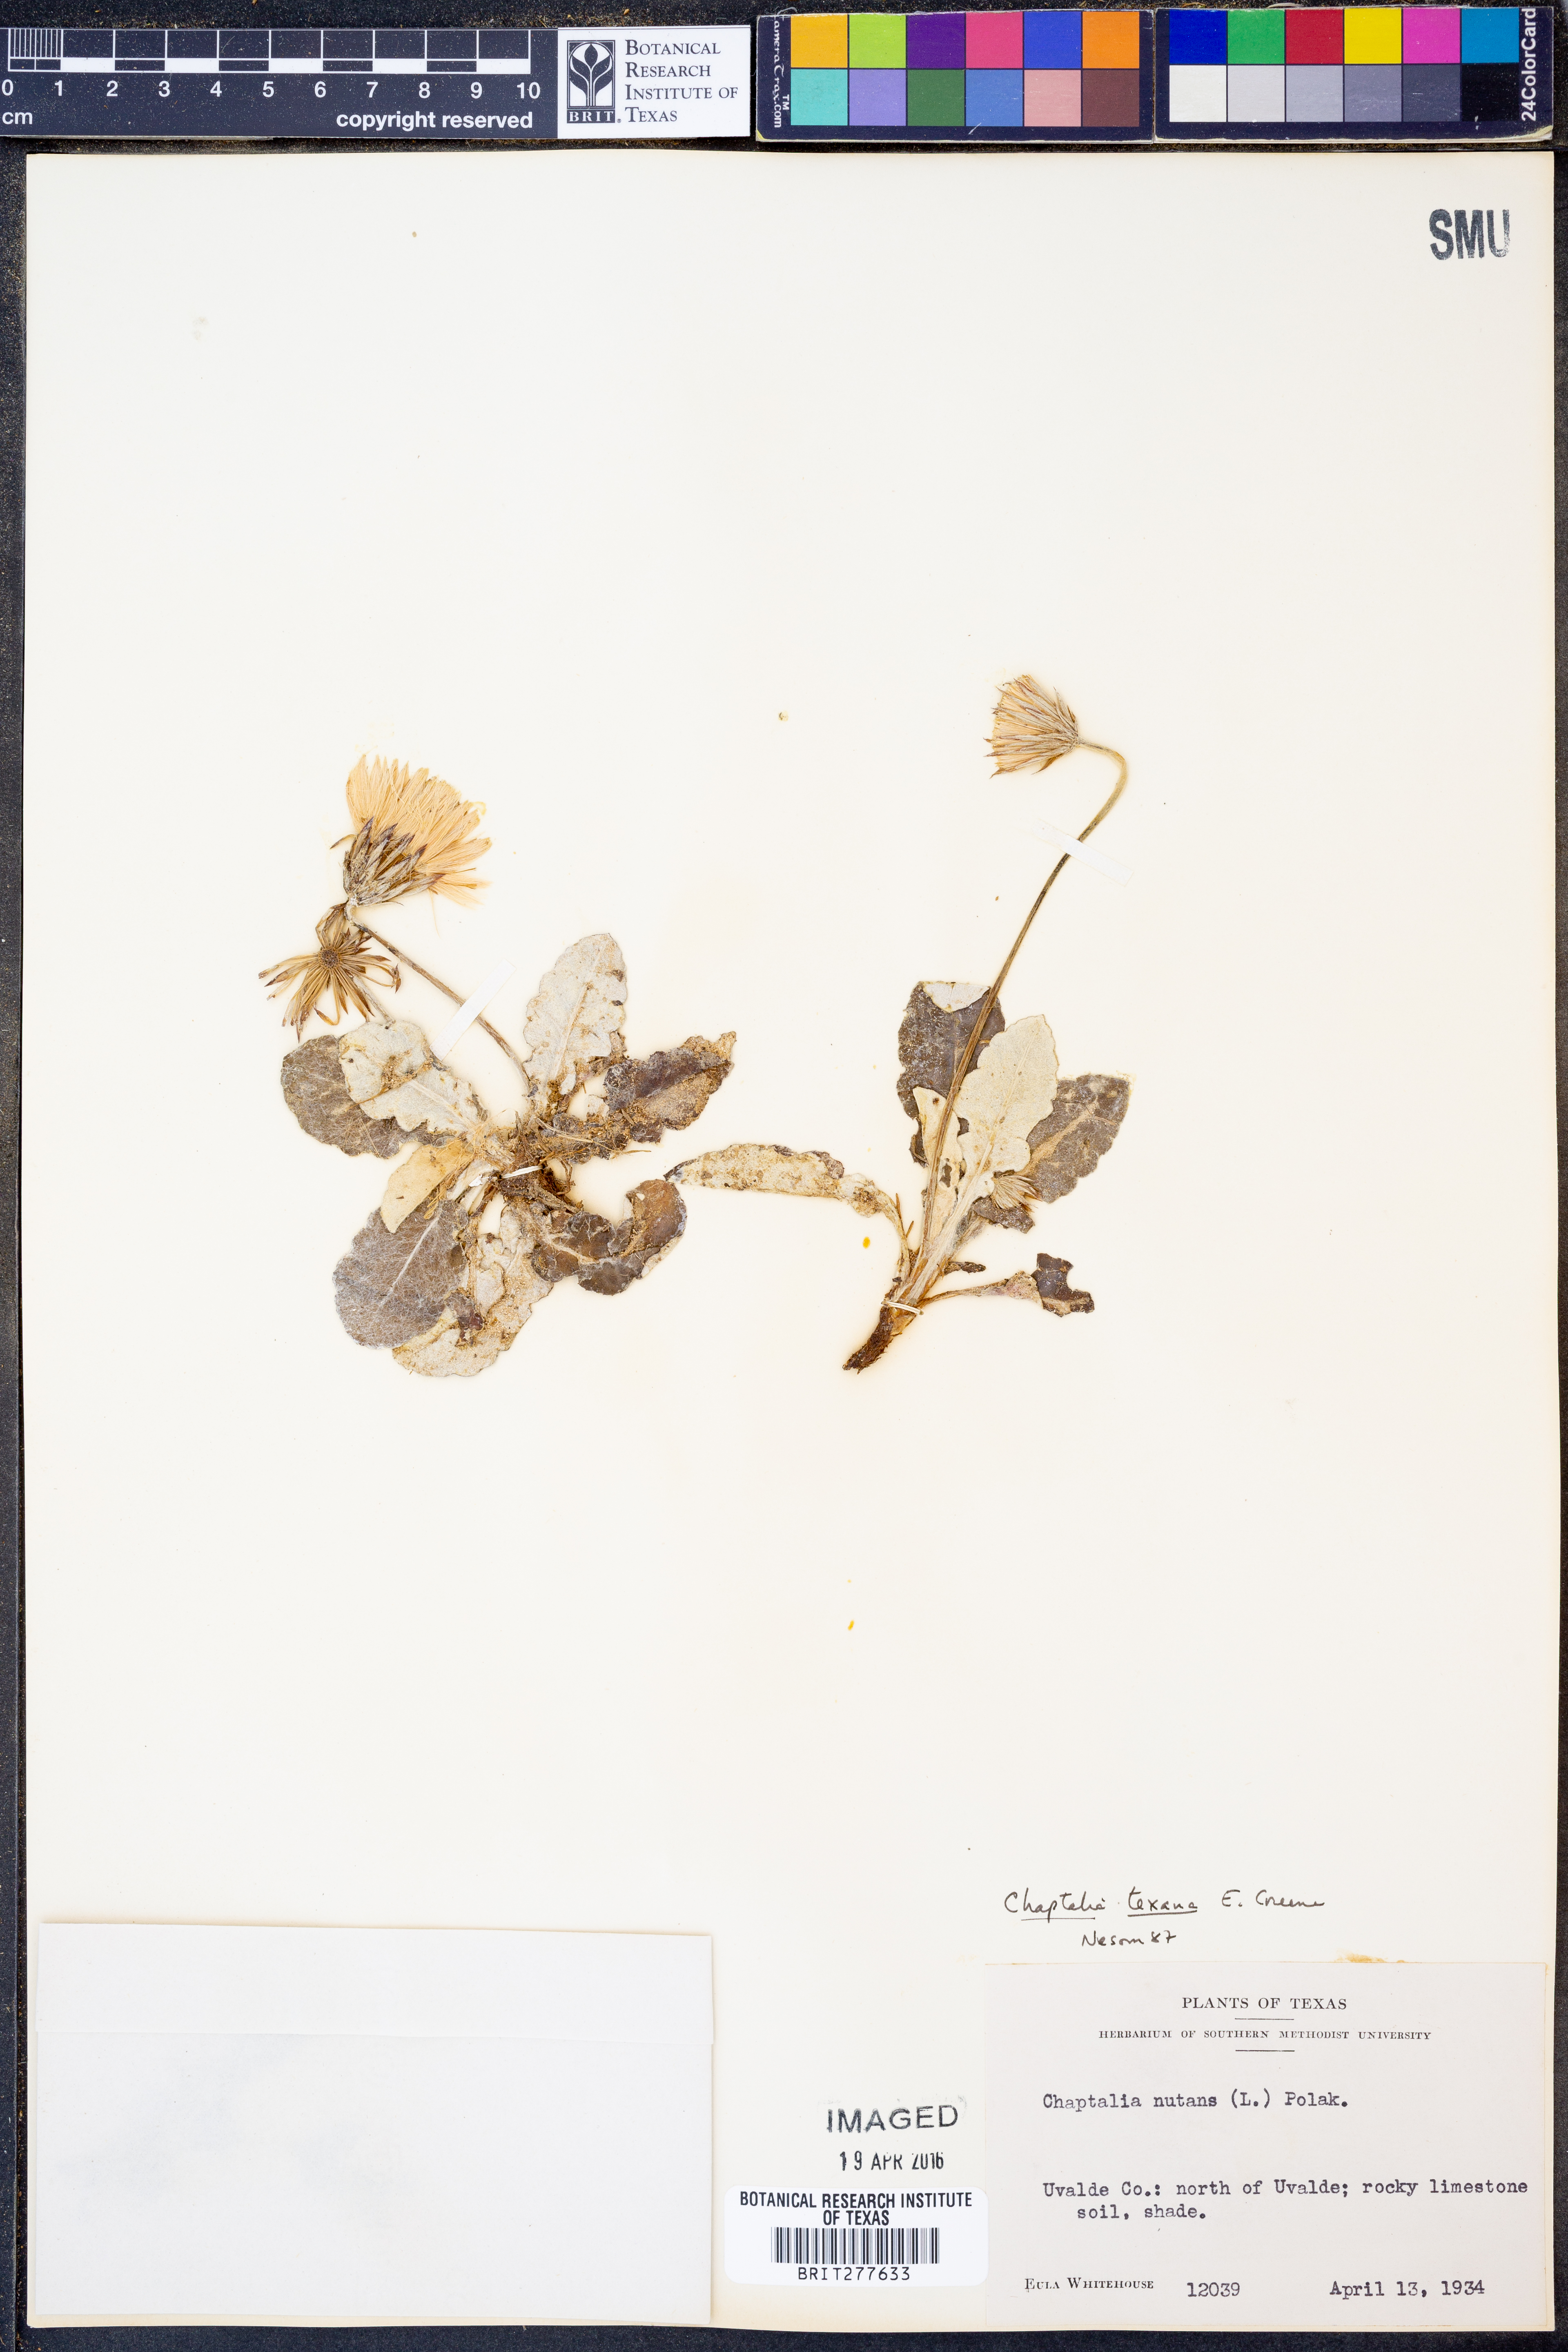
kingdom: Plantae
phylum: Tracheophyta
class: Magnoliopsida
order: Asterales
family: Asteraceae
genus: Chaptalia
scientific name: Chaptalia texana
